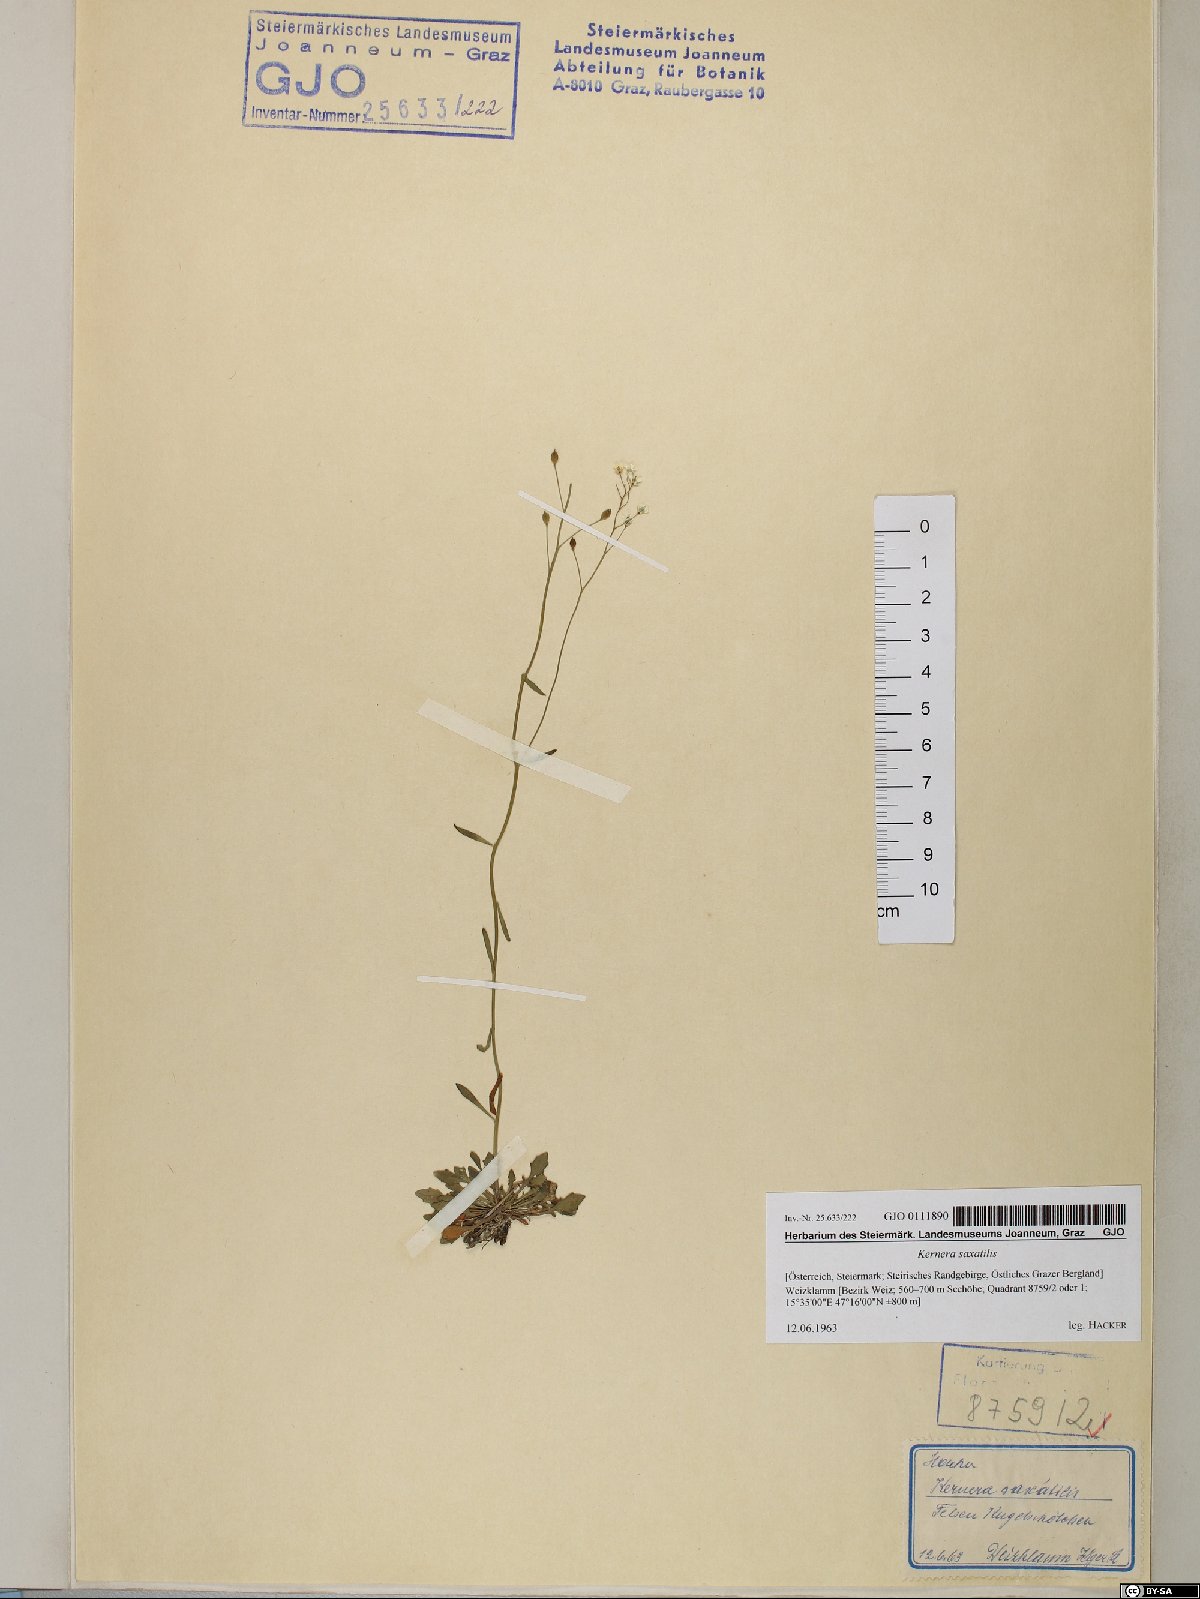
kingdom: Plantae
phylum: Tracheophyta
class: Magnoliopsida
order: Brassicales
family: Brassicaceae
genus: Kernera
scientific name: Kernera saxatilis
